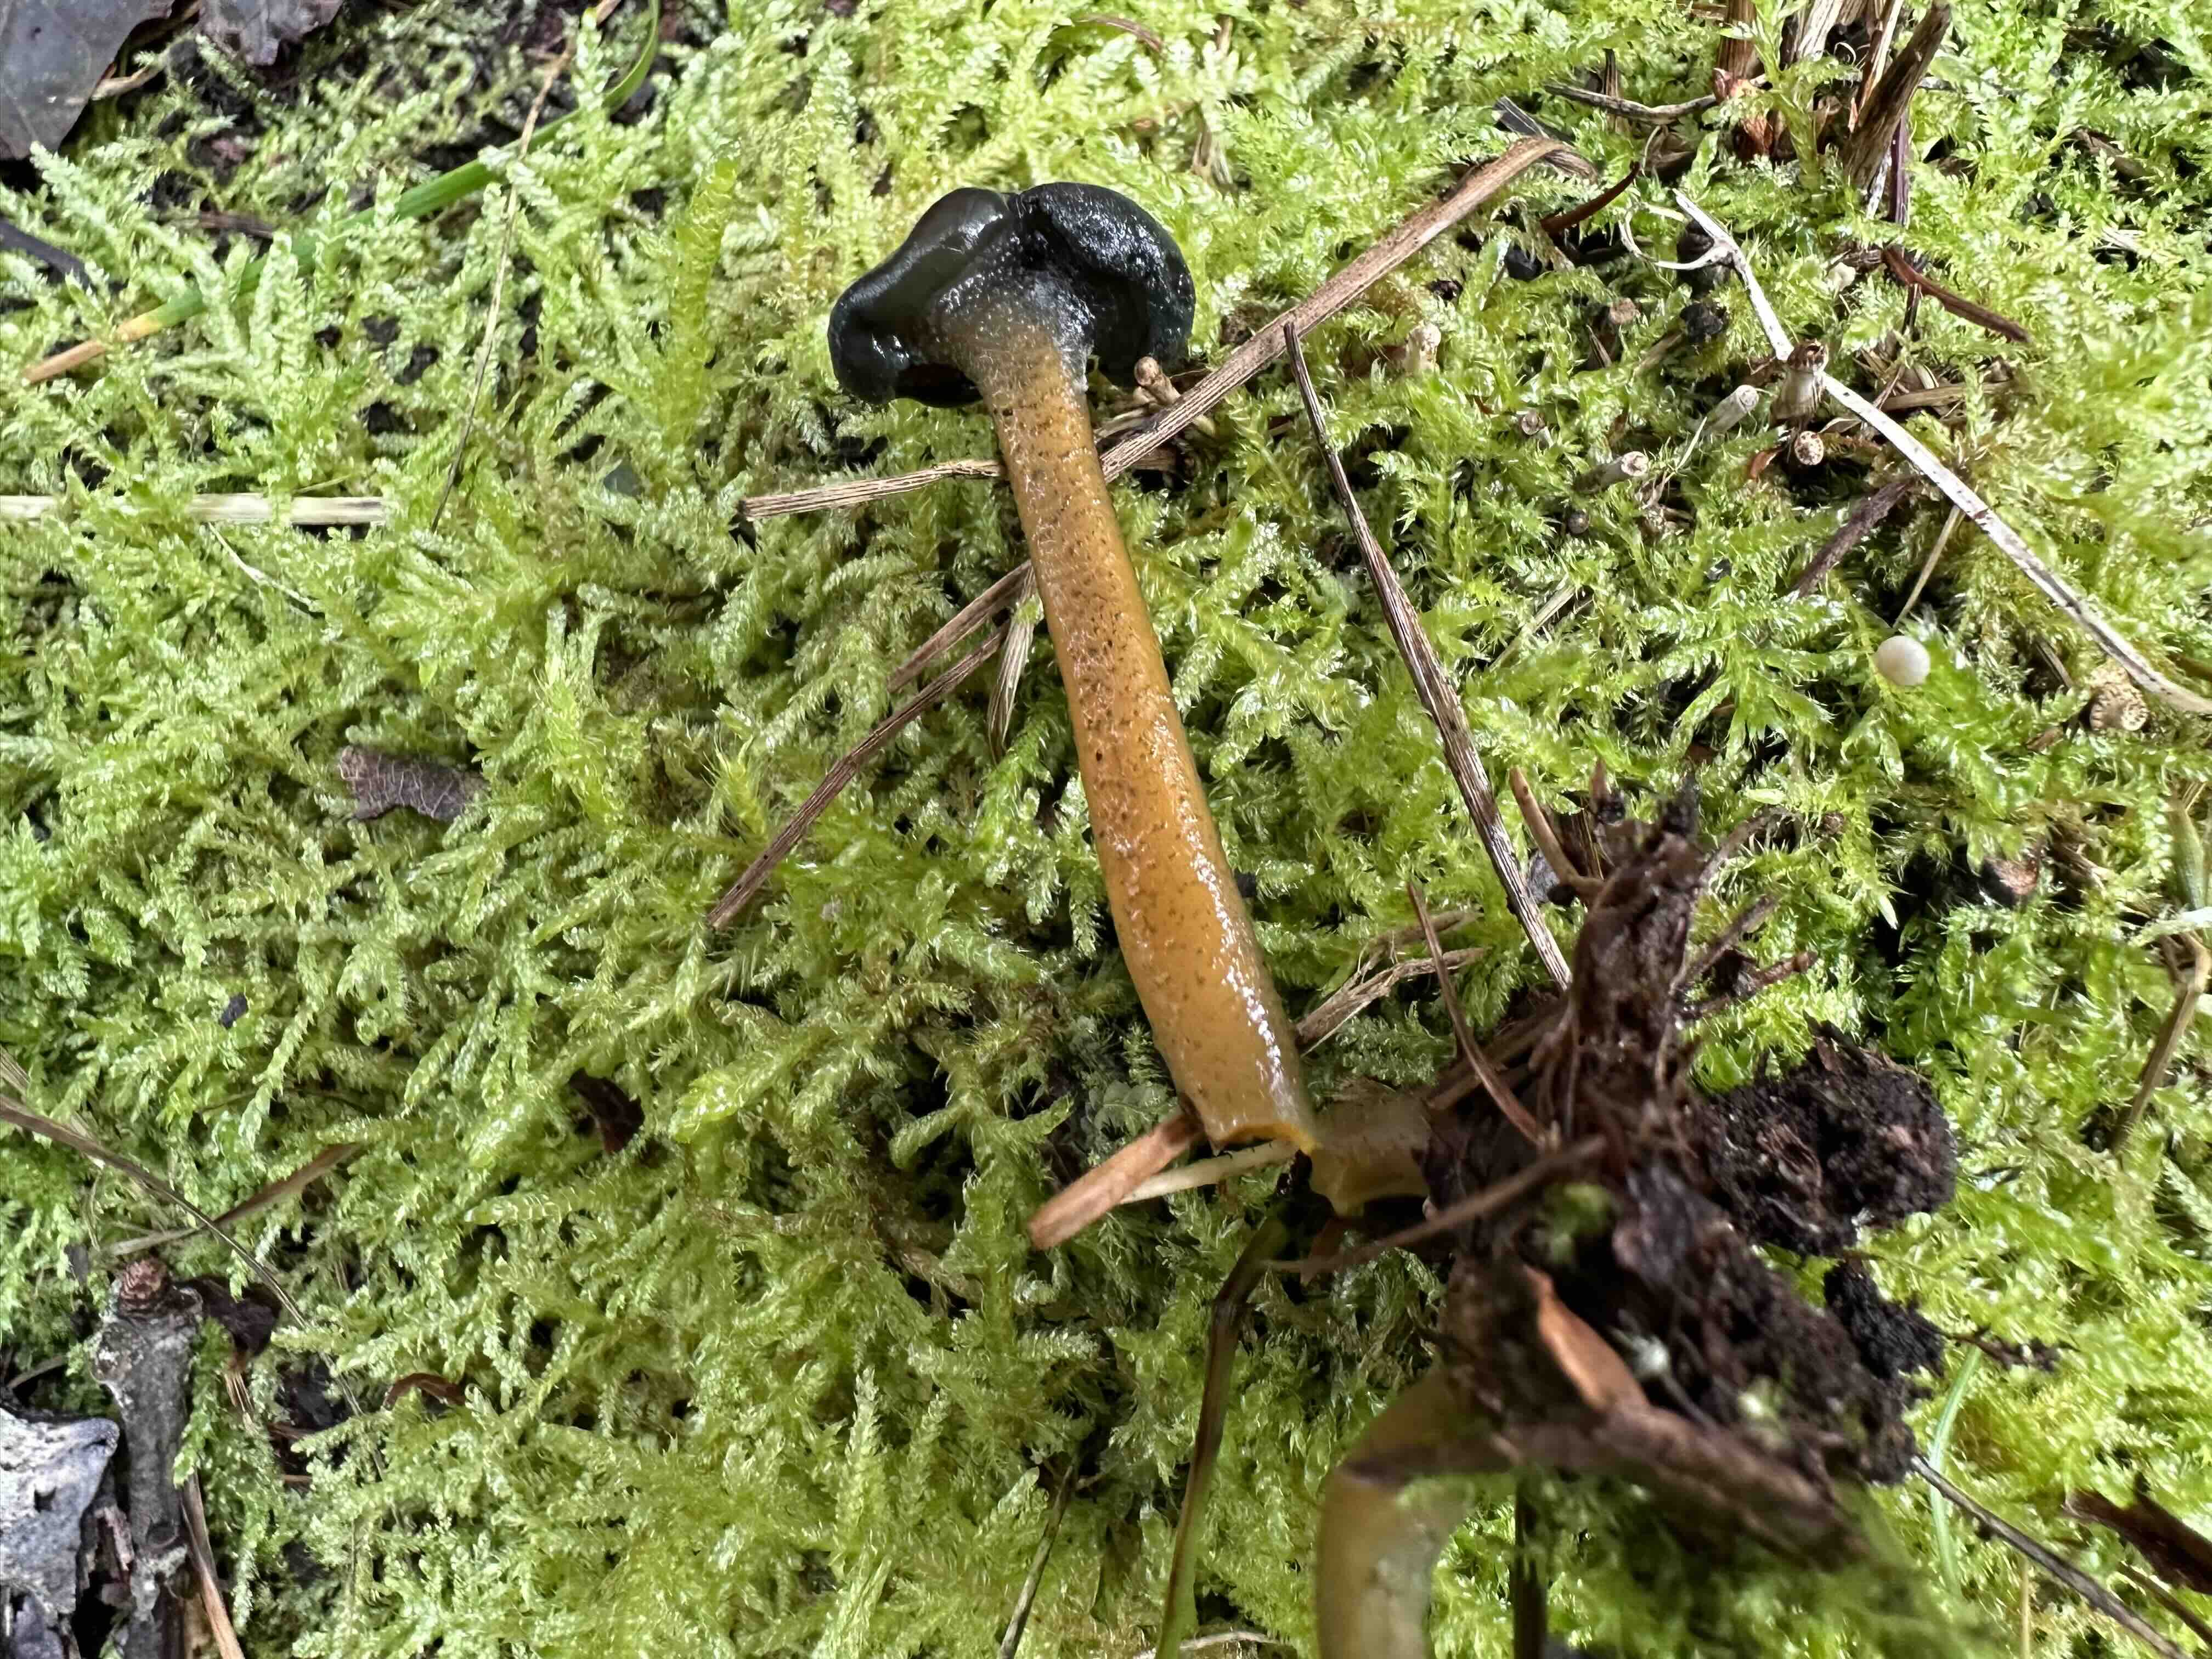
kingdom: Fungi
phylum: Ascomycota
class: Leotiomycetes
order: Leotiales
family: Leotiaceae
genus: Leotia
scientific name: Leotia lubrica
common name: ravsvamp
